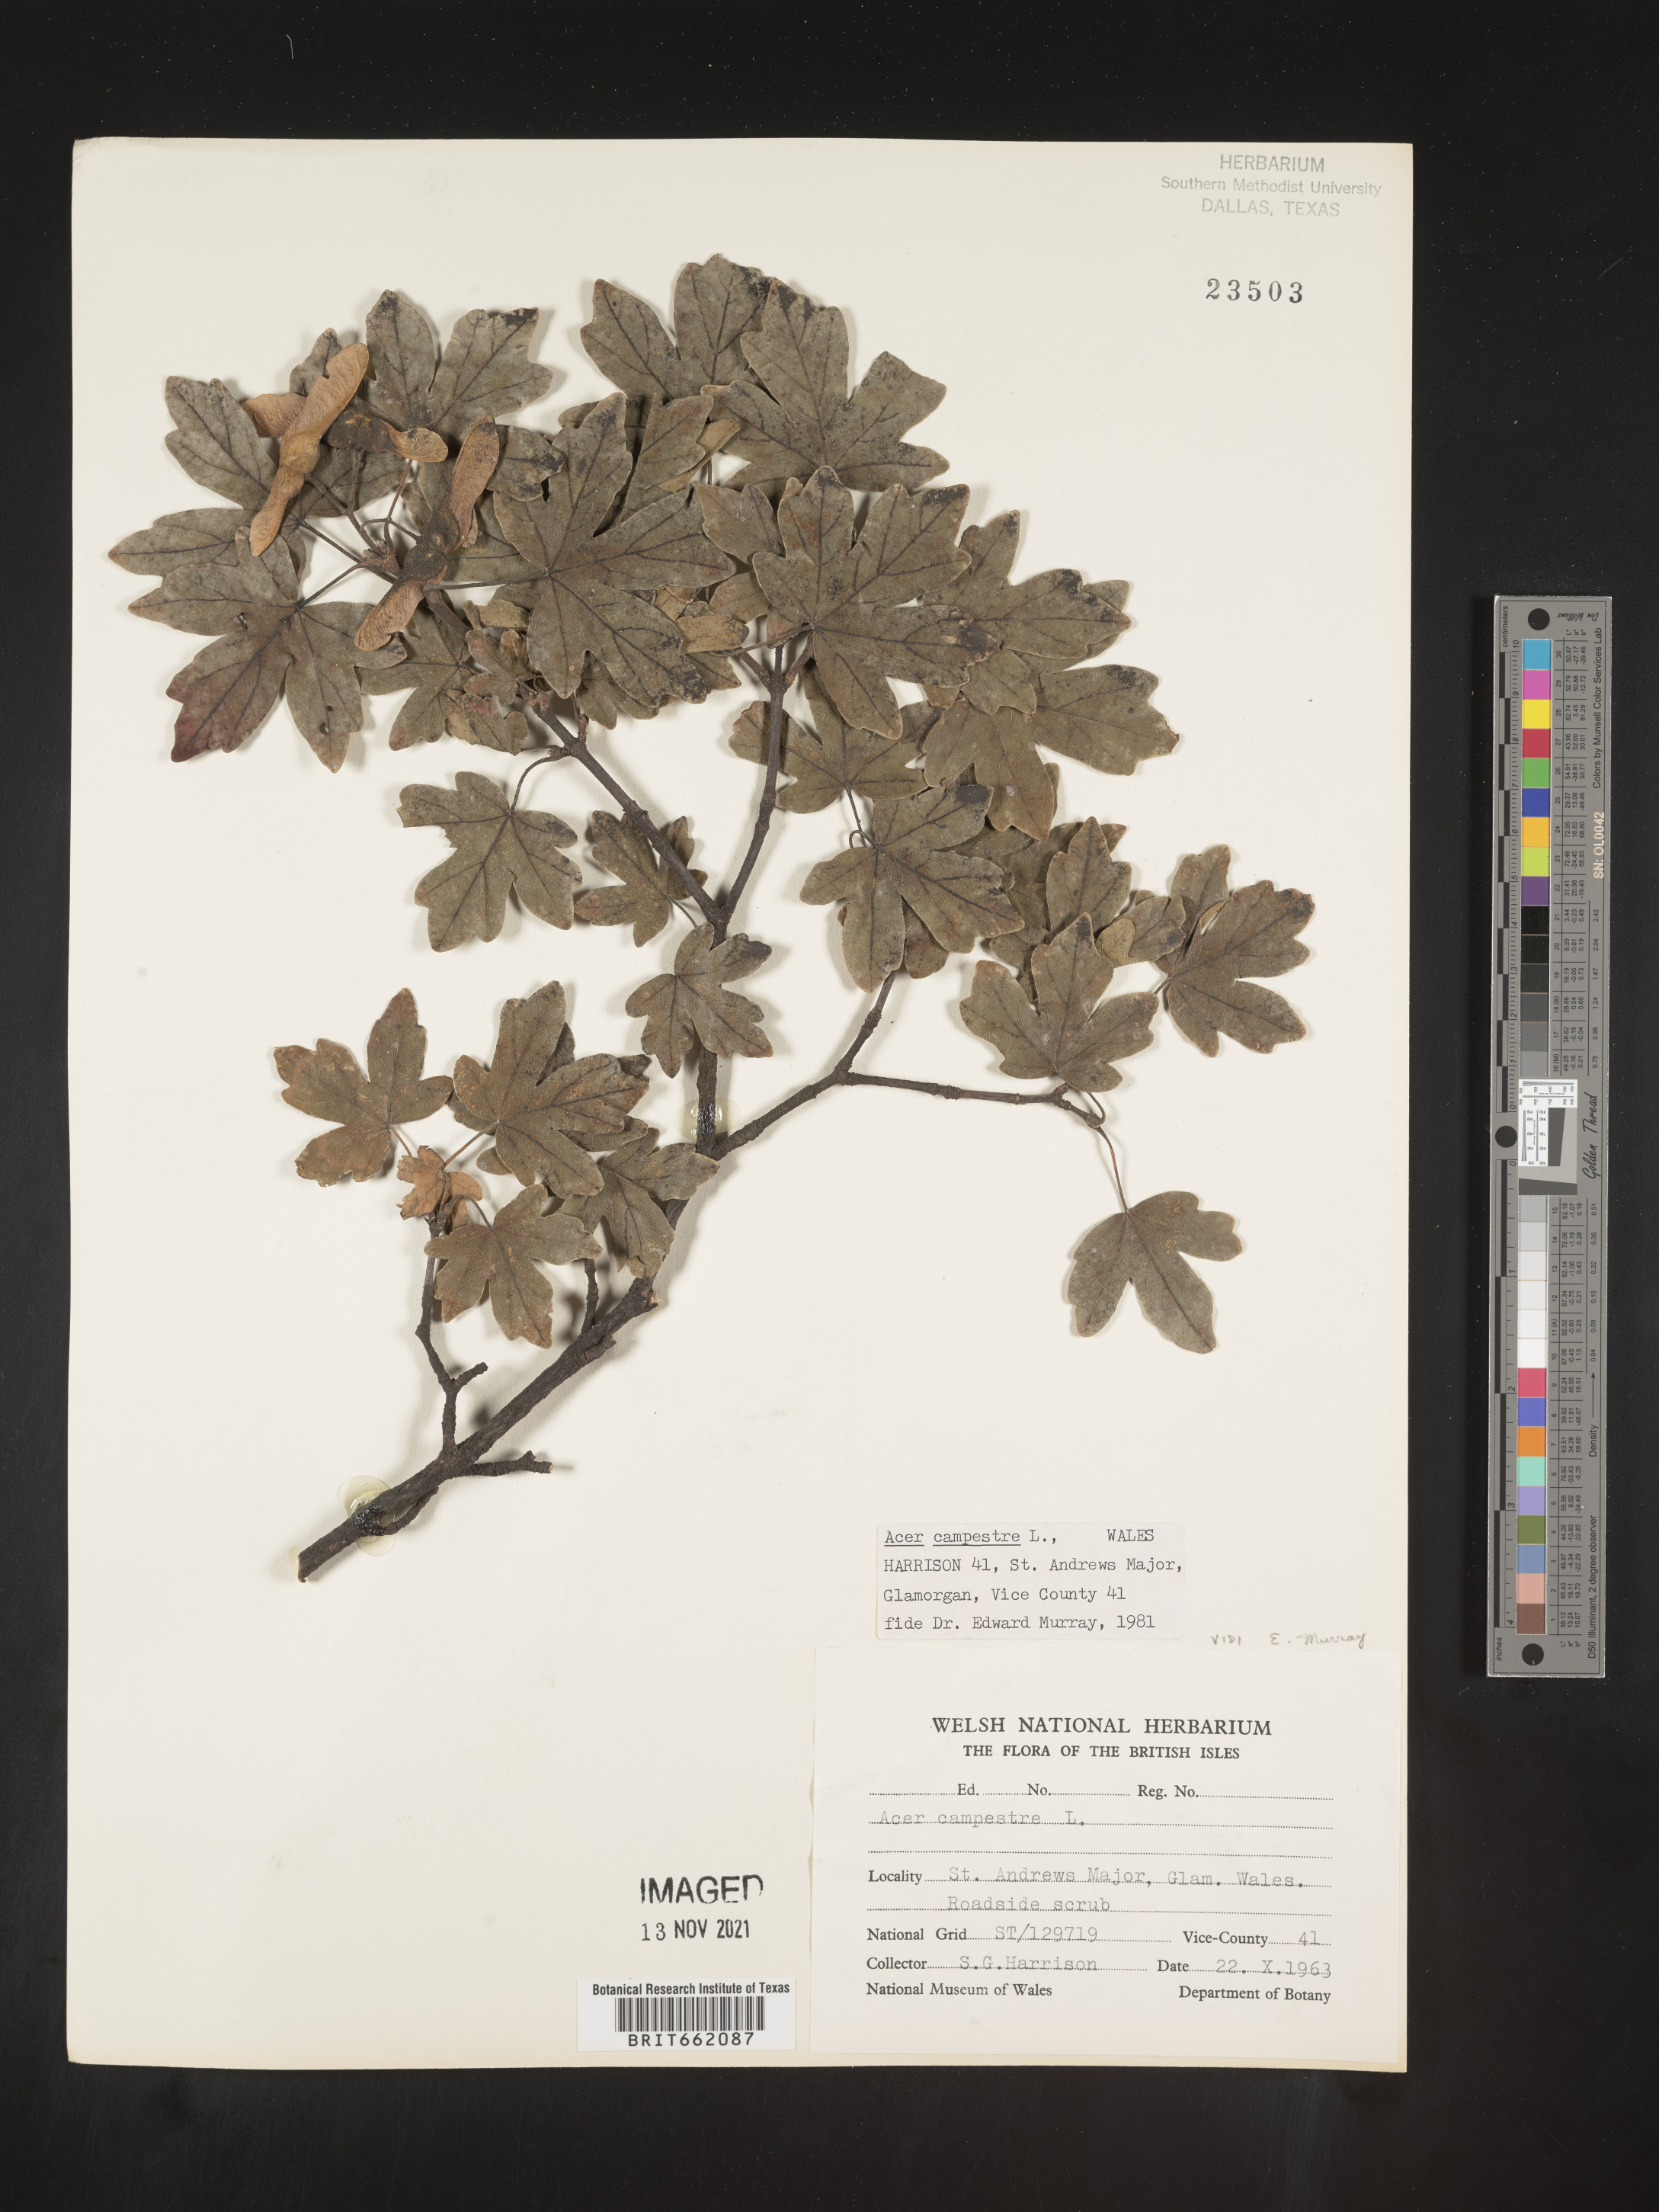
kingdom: Plantae
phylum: Tracheophyta
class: Magnoliopsida
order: Sapindales
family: Sapindaceae
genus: Acer
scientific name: Acer
